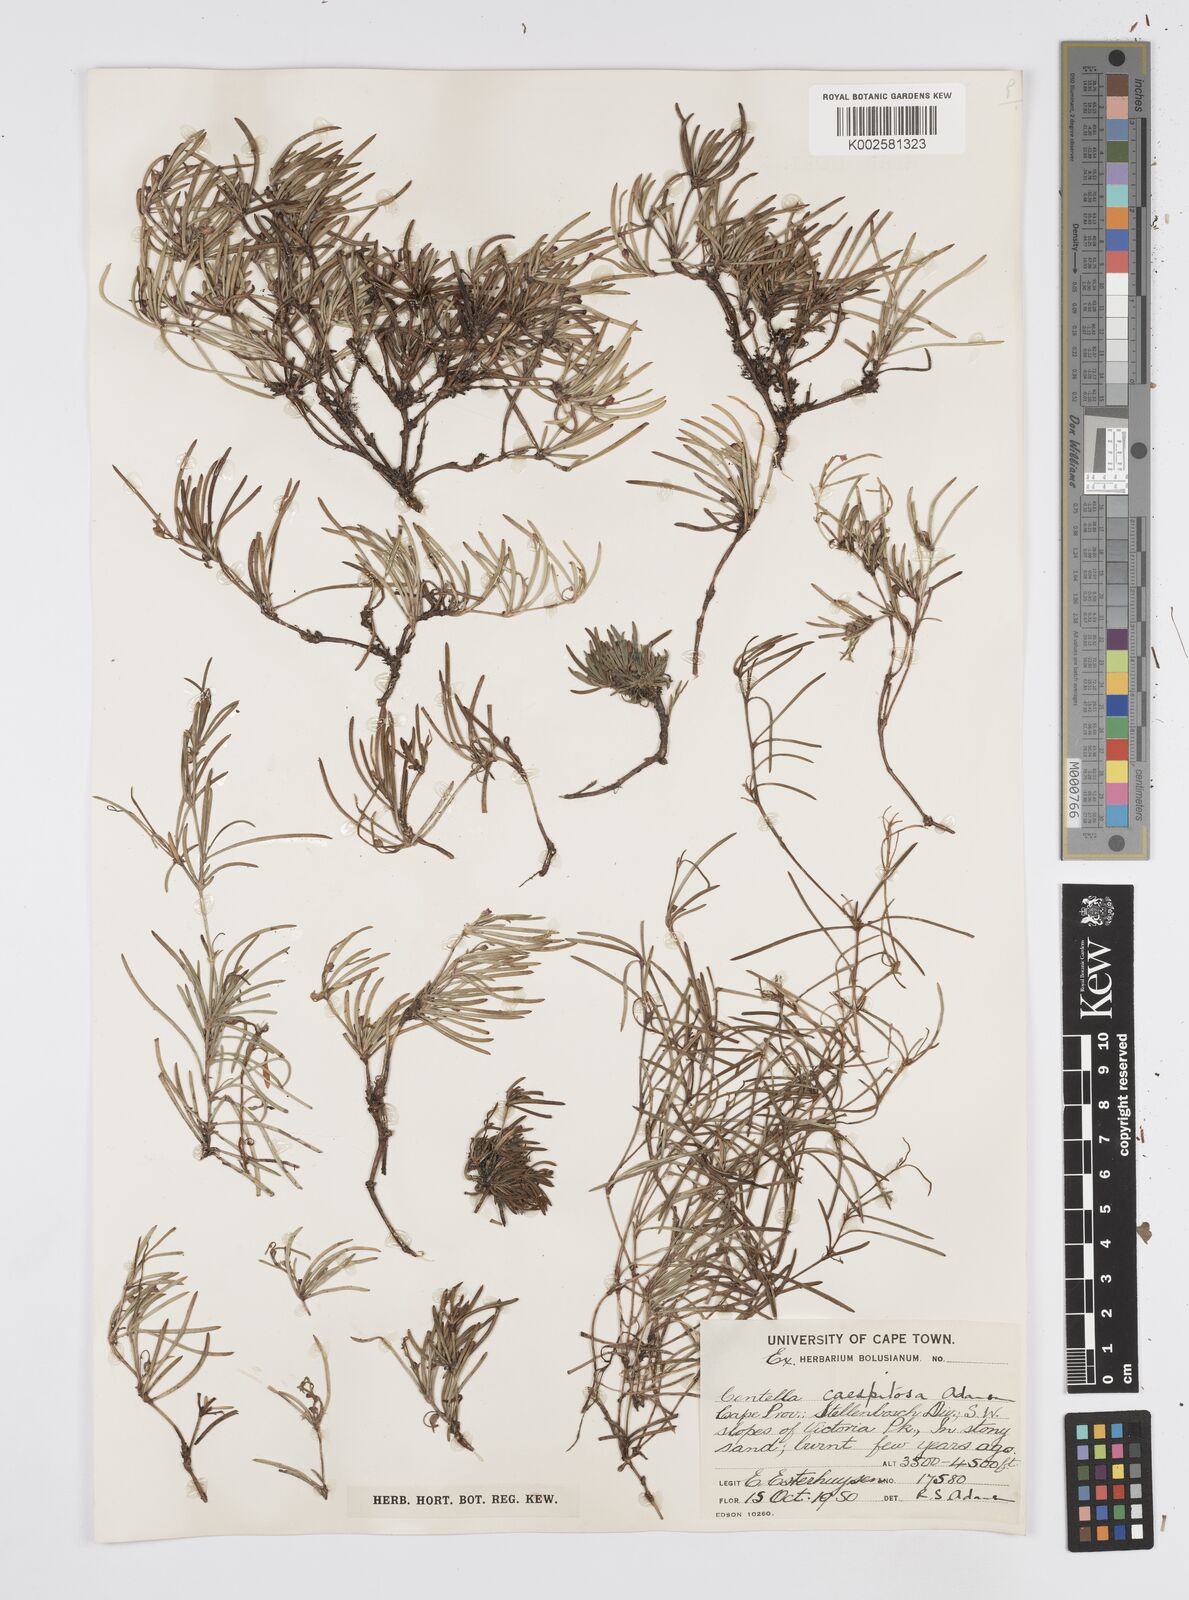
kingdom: Plantae
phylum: Tracheophyta
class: Magnoliopsida
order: Apiales
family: Apiaceae
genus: Centella
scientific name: Centella caespitosa
